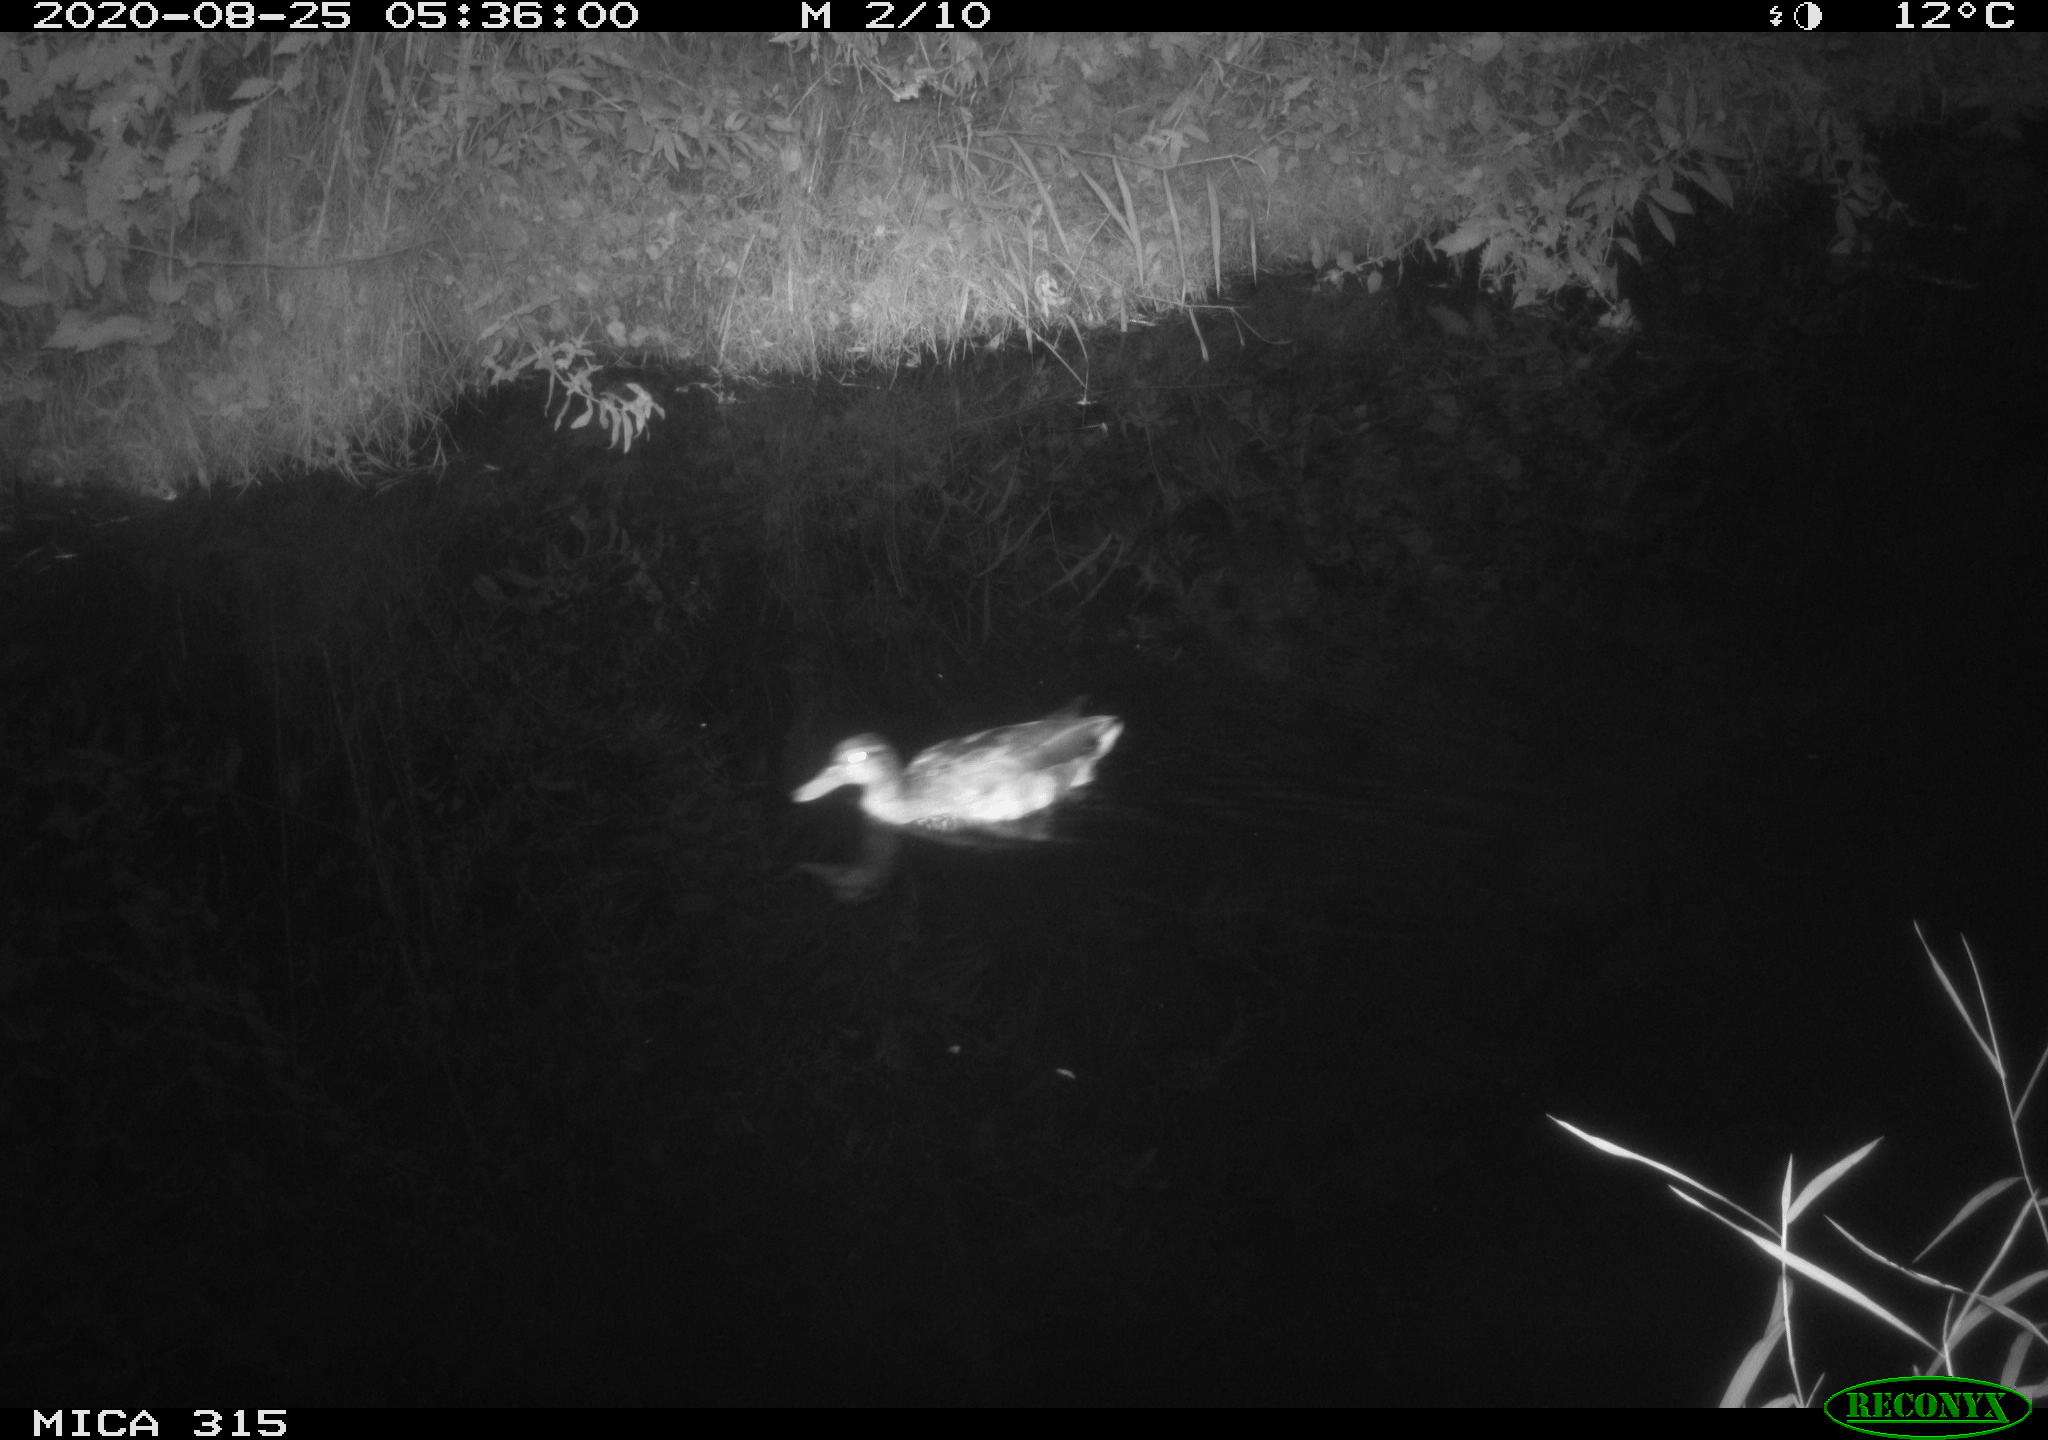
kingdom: Animalia
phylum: Chordata
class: Aves
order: Anseriformes
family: Anatidae
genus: Anas
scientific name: Anas platyrhynchos
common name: Mallard
